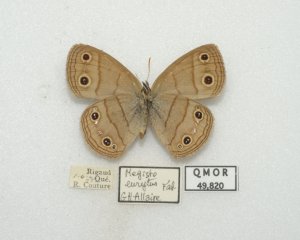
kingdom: Animalia
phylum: Arthropoda
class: Insecta
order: Lepidoptera
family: Nymphalidae
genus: Euptychia
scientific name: Euptychia cymela
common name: Little Wood Satyr
